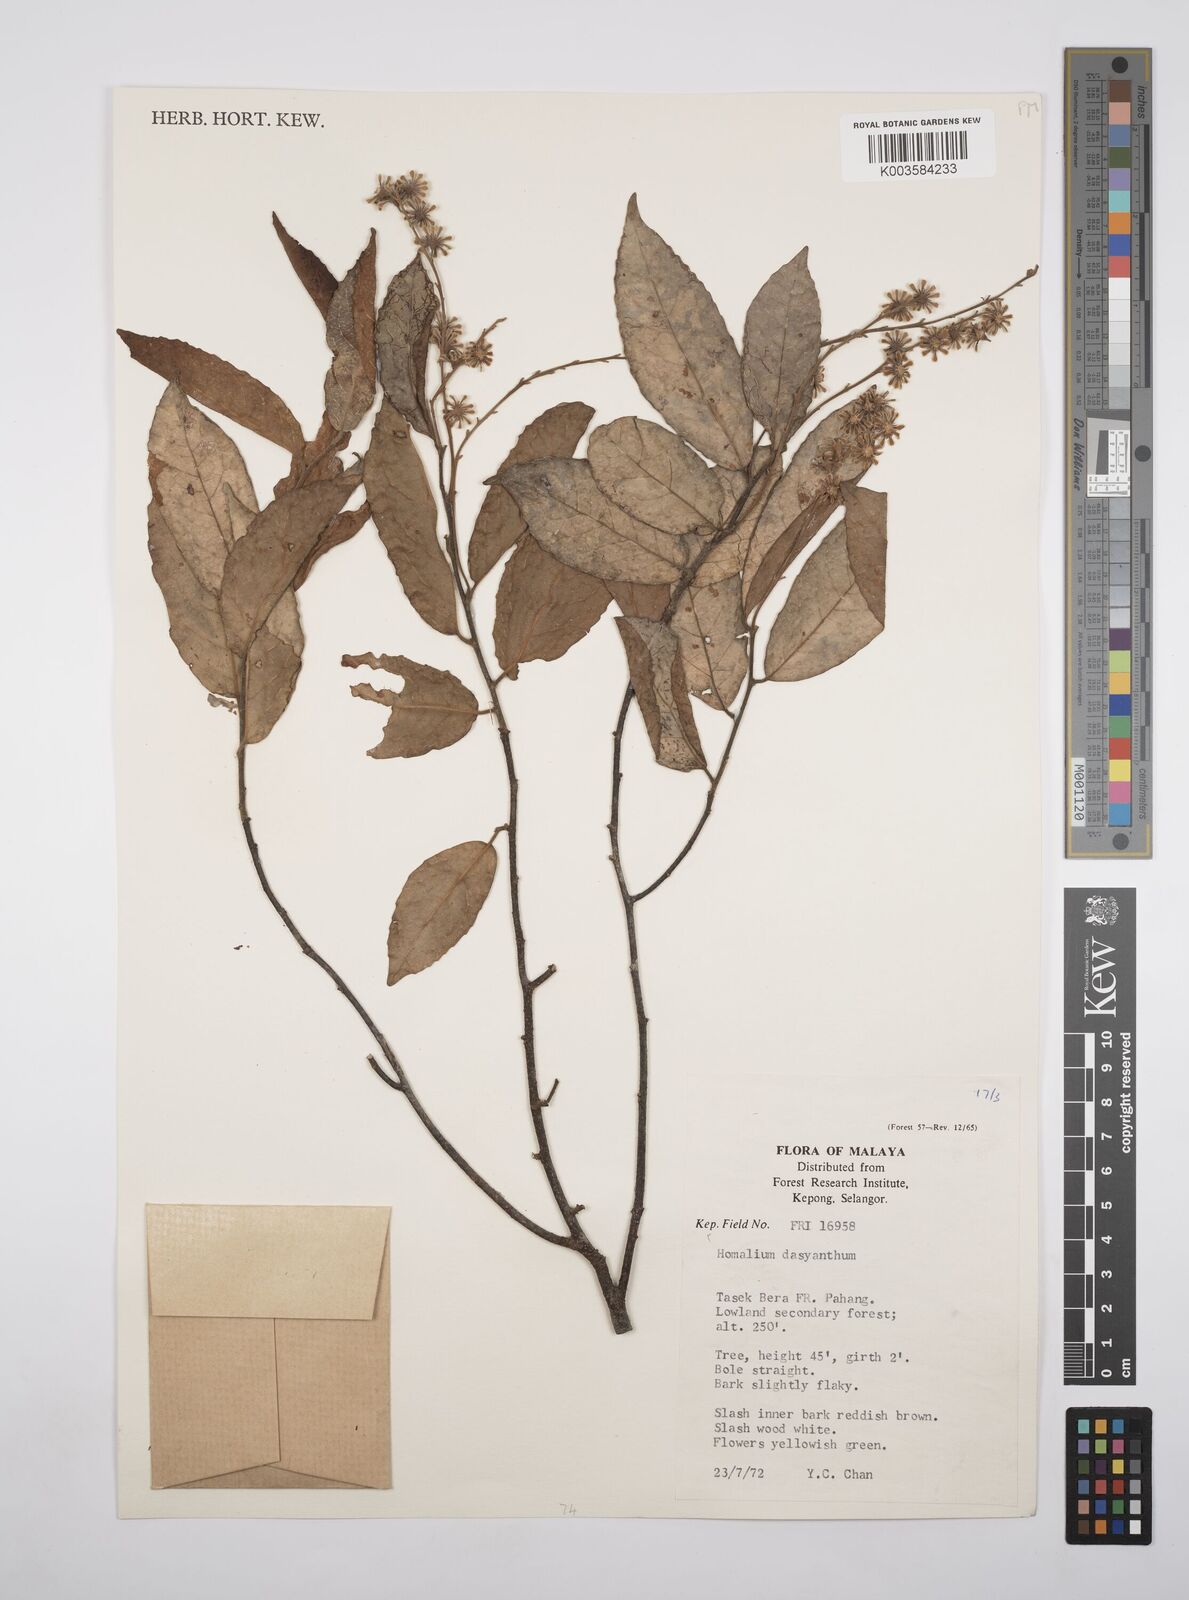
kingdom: Plantae
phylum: Tracheophyta
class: Magnoliopsida
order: Malpighiales
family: Salicaceae
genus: Homalium
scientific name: Homalium dasyanthum
